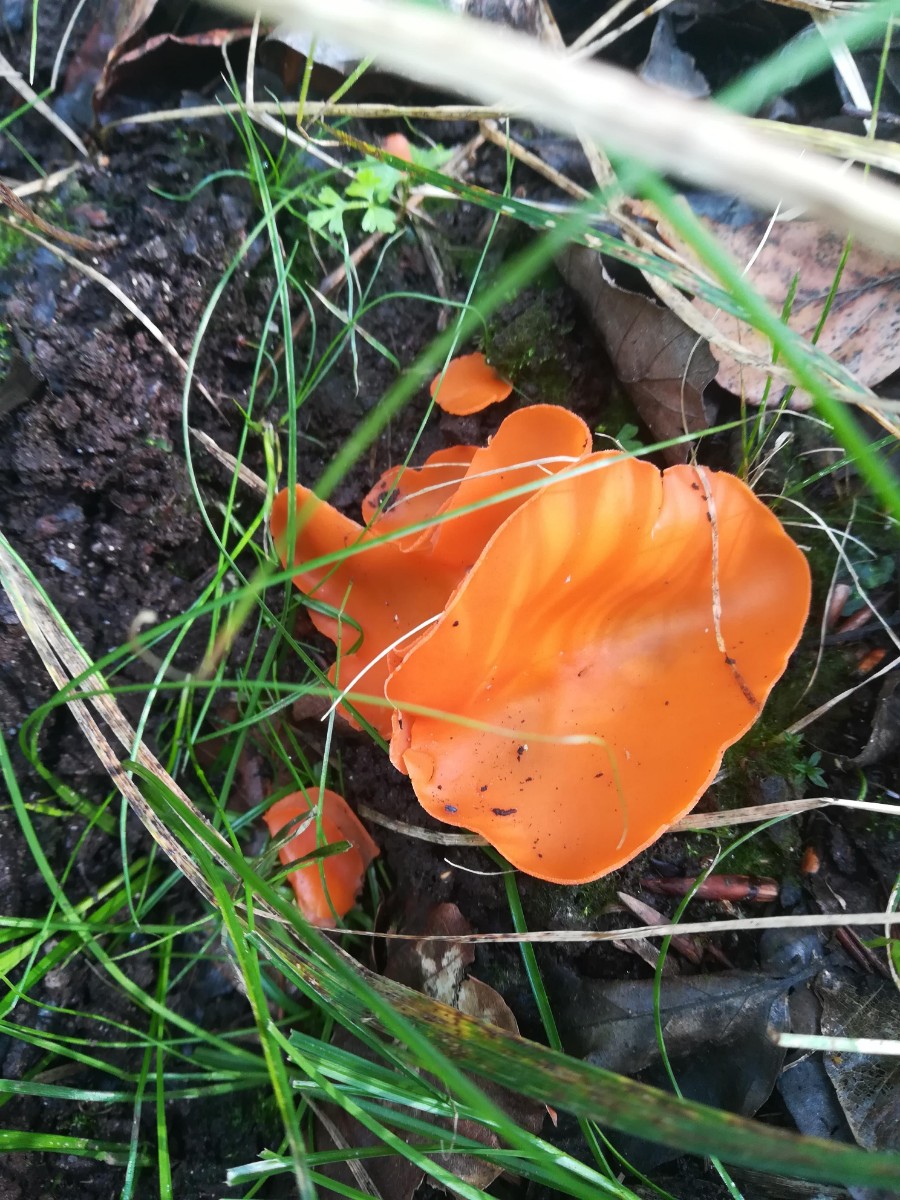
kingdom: Fungi
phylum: Ascomycota
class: Pezizomycetes
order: Pezizales
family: Pyronemataceae
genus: Aleuria
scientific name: Aleuria aurantia
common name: almindelig orangebæger
